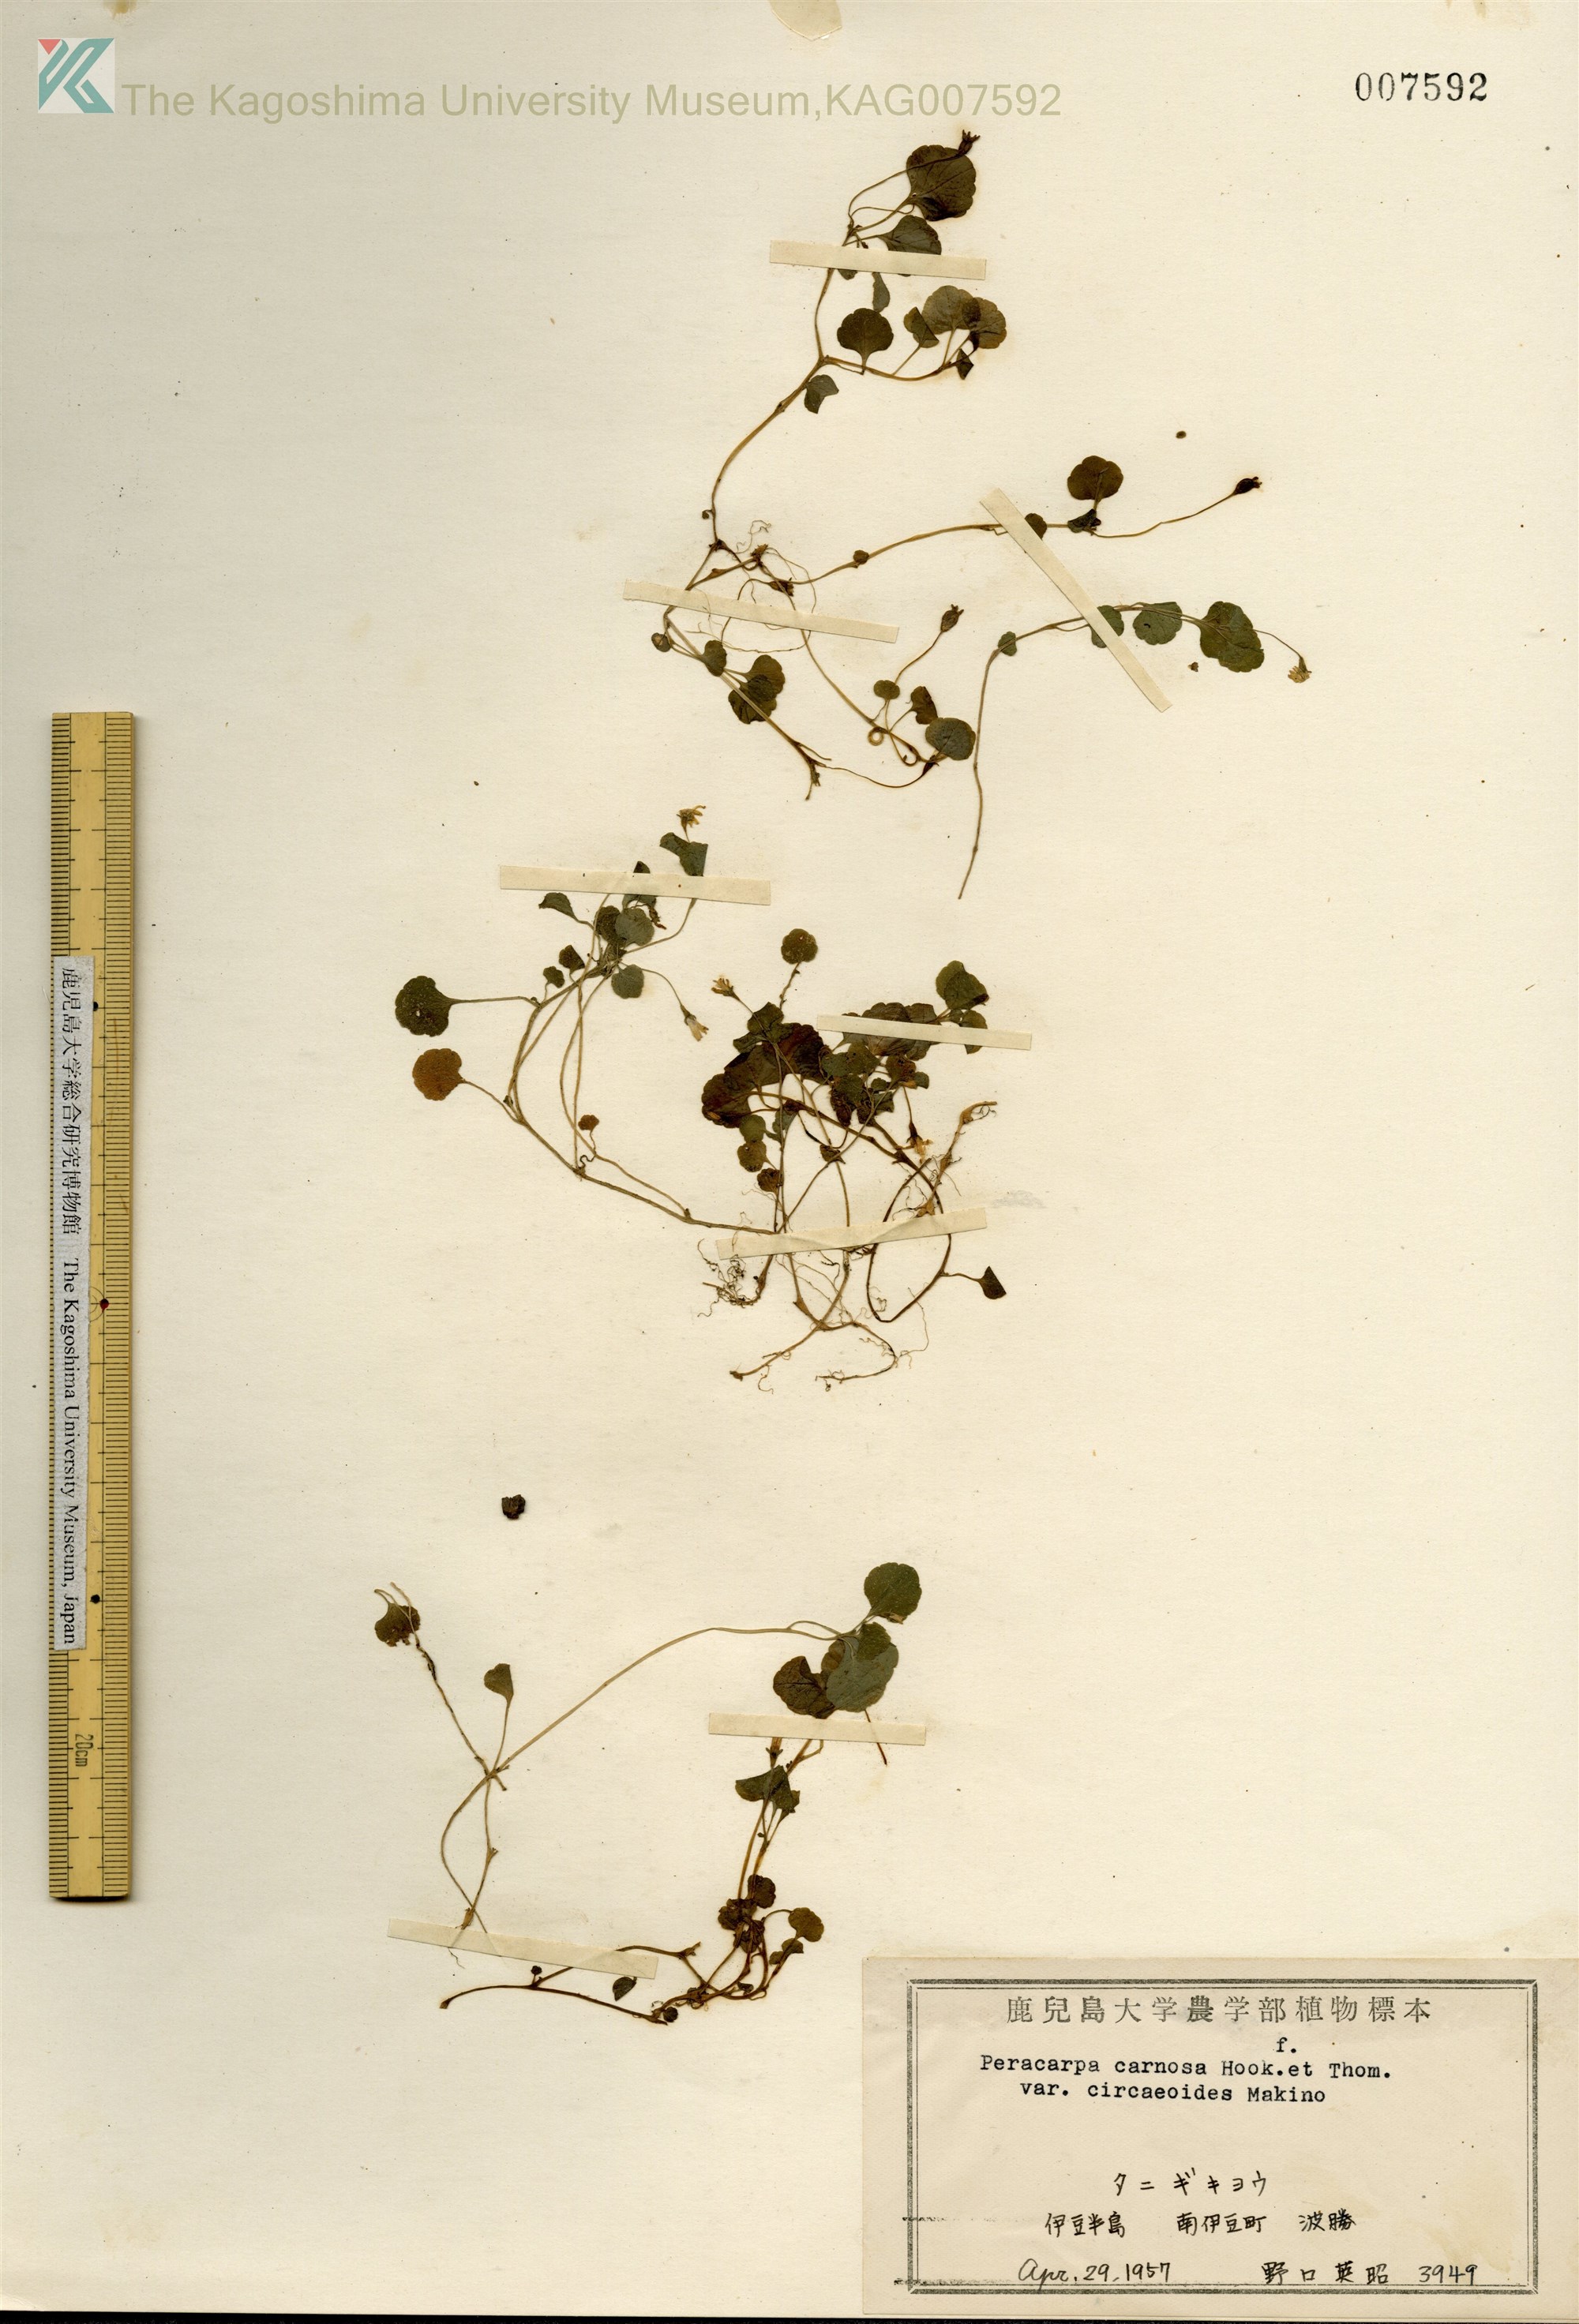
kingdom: Plantae
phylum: Tracheophyta
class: Magnoliopsida
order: Asterales
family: Campanulaceae
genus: Peracarpa
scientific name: Peracarpa carnosa
